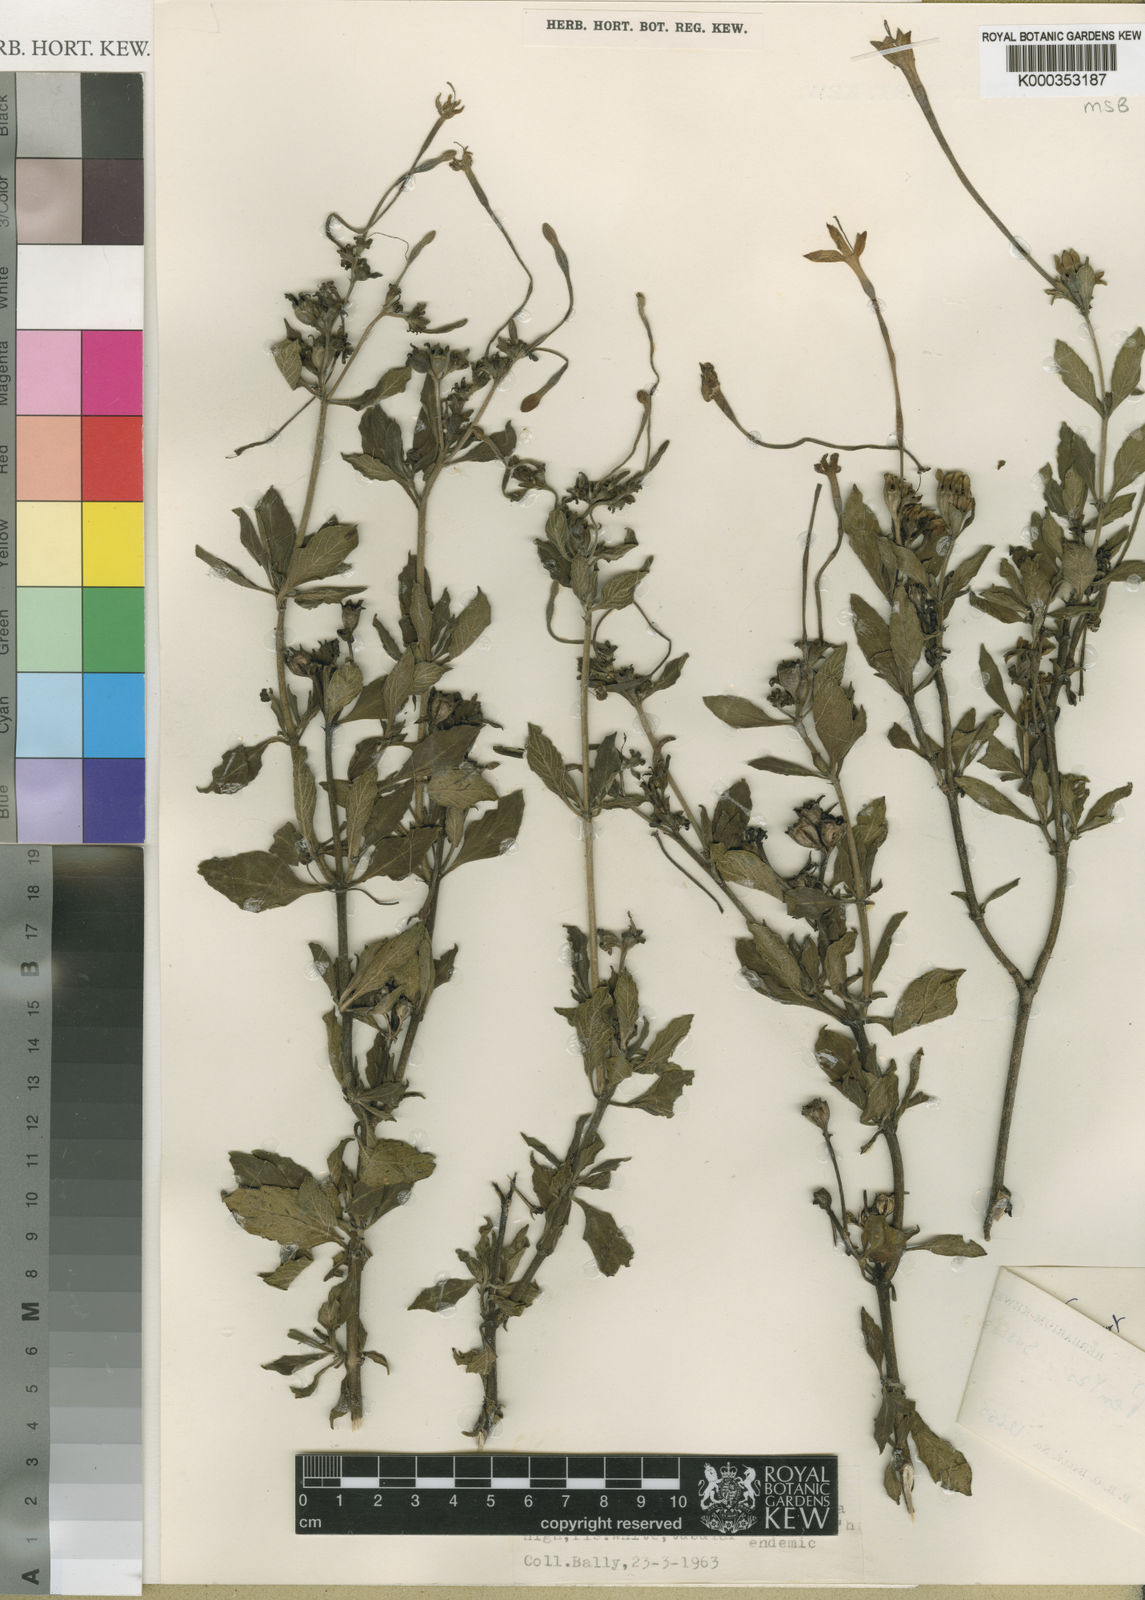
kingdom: Plantae
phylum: Tracheophyta
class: Magnoliopsida
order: Gentianales
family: Rubiaceae
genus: Pentas
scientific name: Pentas suswaensis
